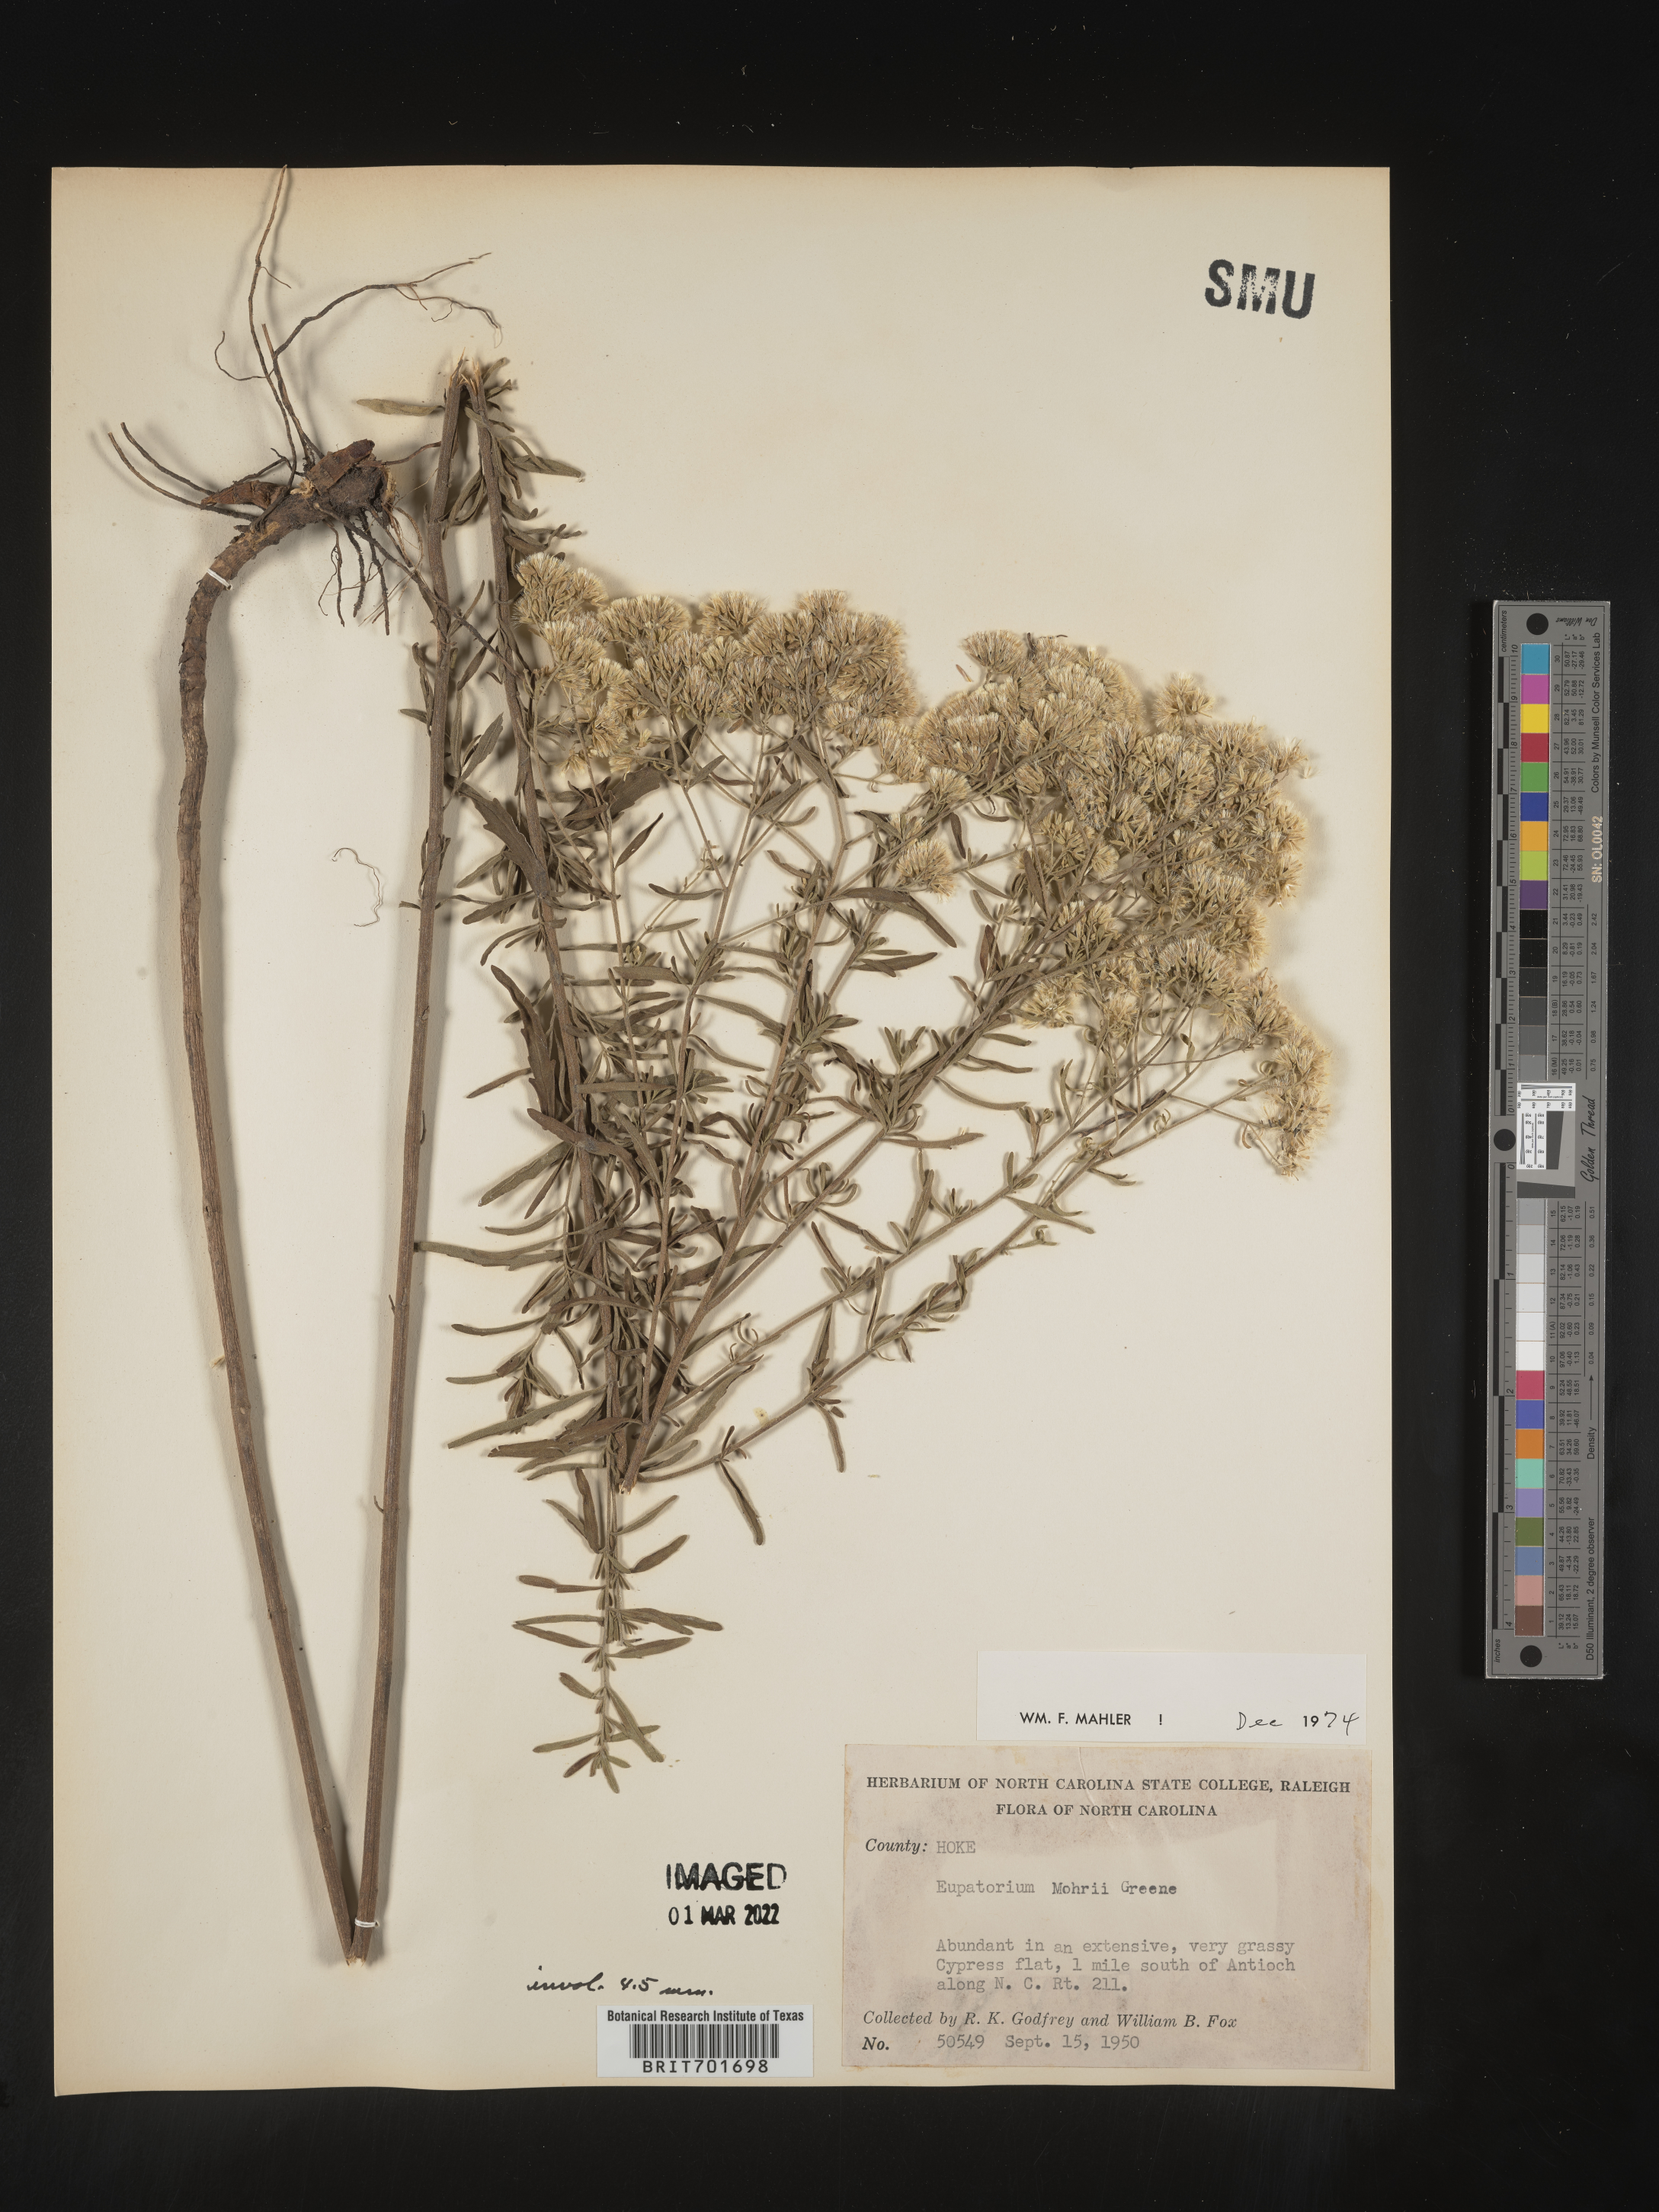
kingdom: Plantae
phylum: Tracheophyta
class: Magnoliopsida
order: Asterales
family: Asteraceae
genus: Eupatorium
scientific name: Eupatorium mohrii
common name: Mohr's thoroughwort
